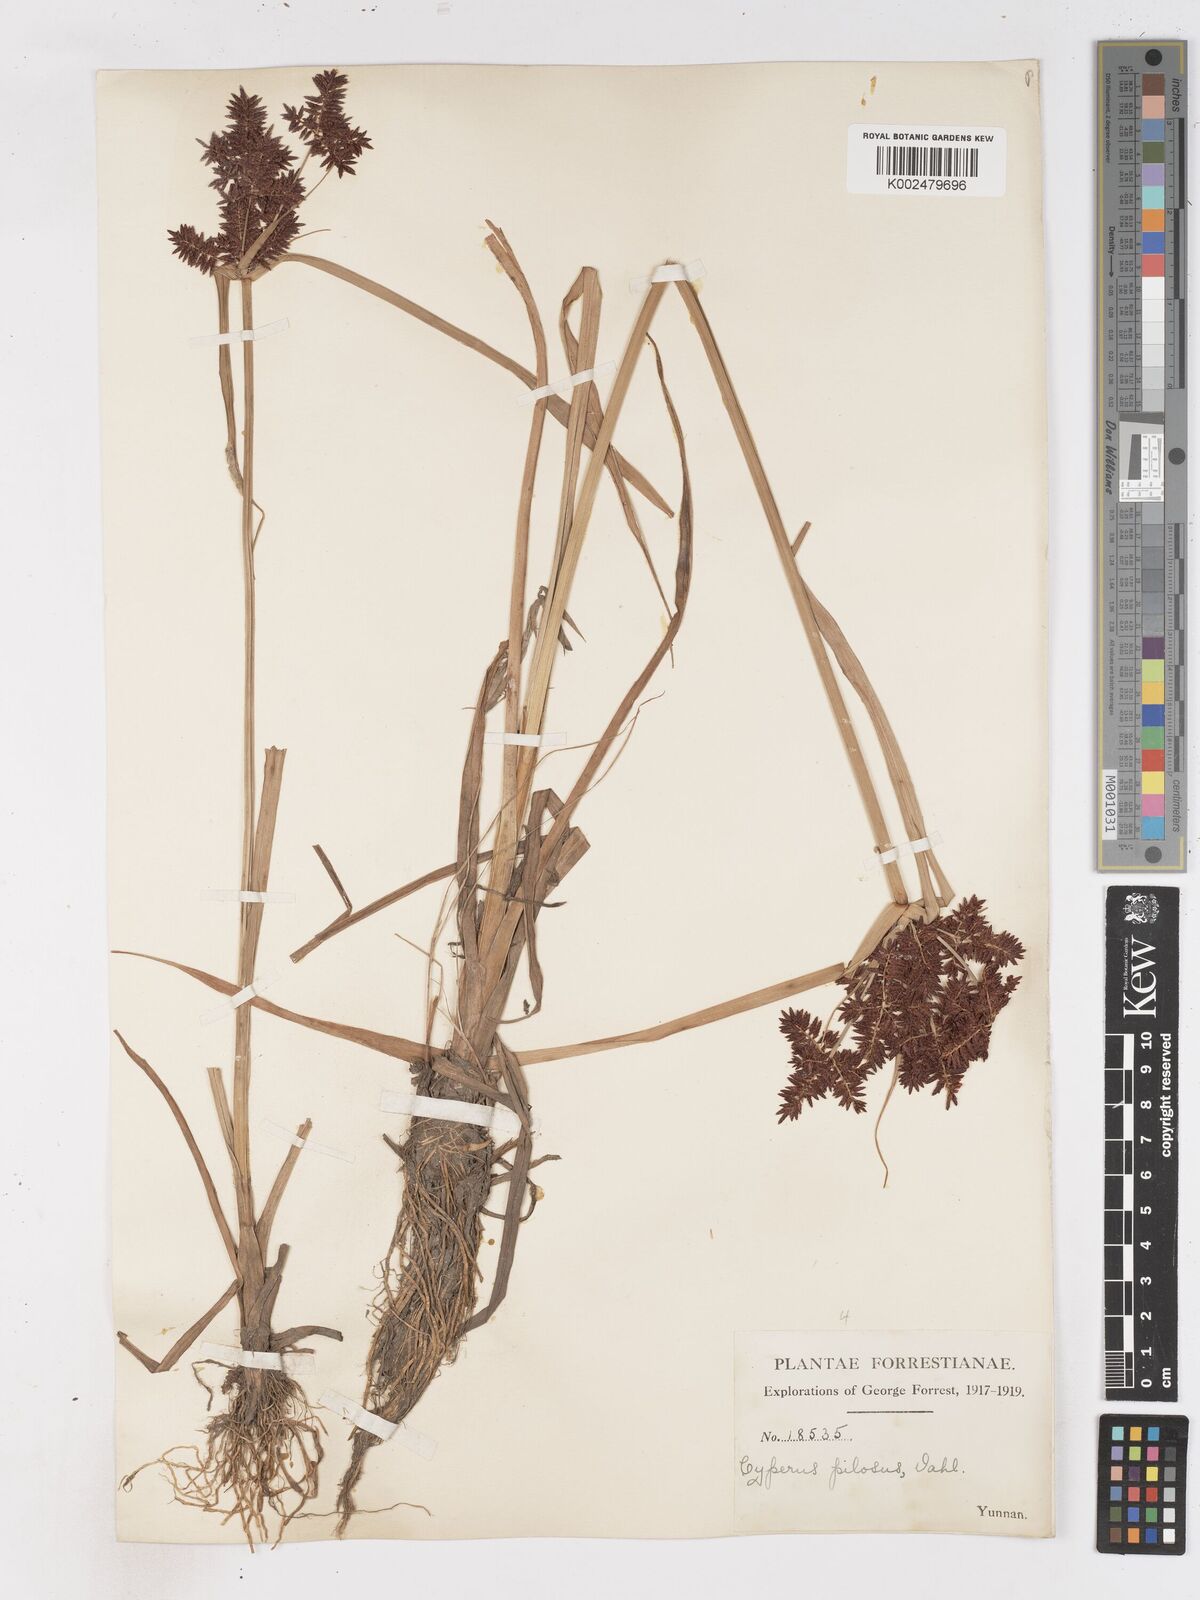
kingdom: Plantae
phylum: Tracheophyta
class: Liliopsida
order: Poales
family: Cyperaceae
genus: Cyperus
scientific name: Cyperus pilosus
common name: Fuzzy flatsedge
